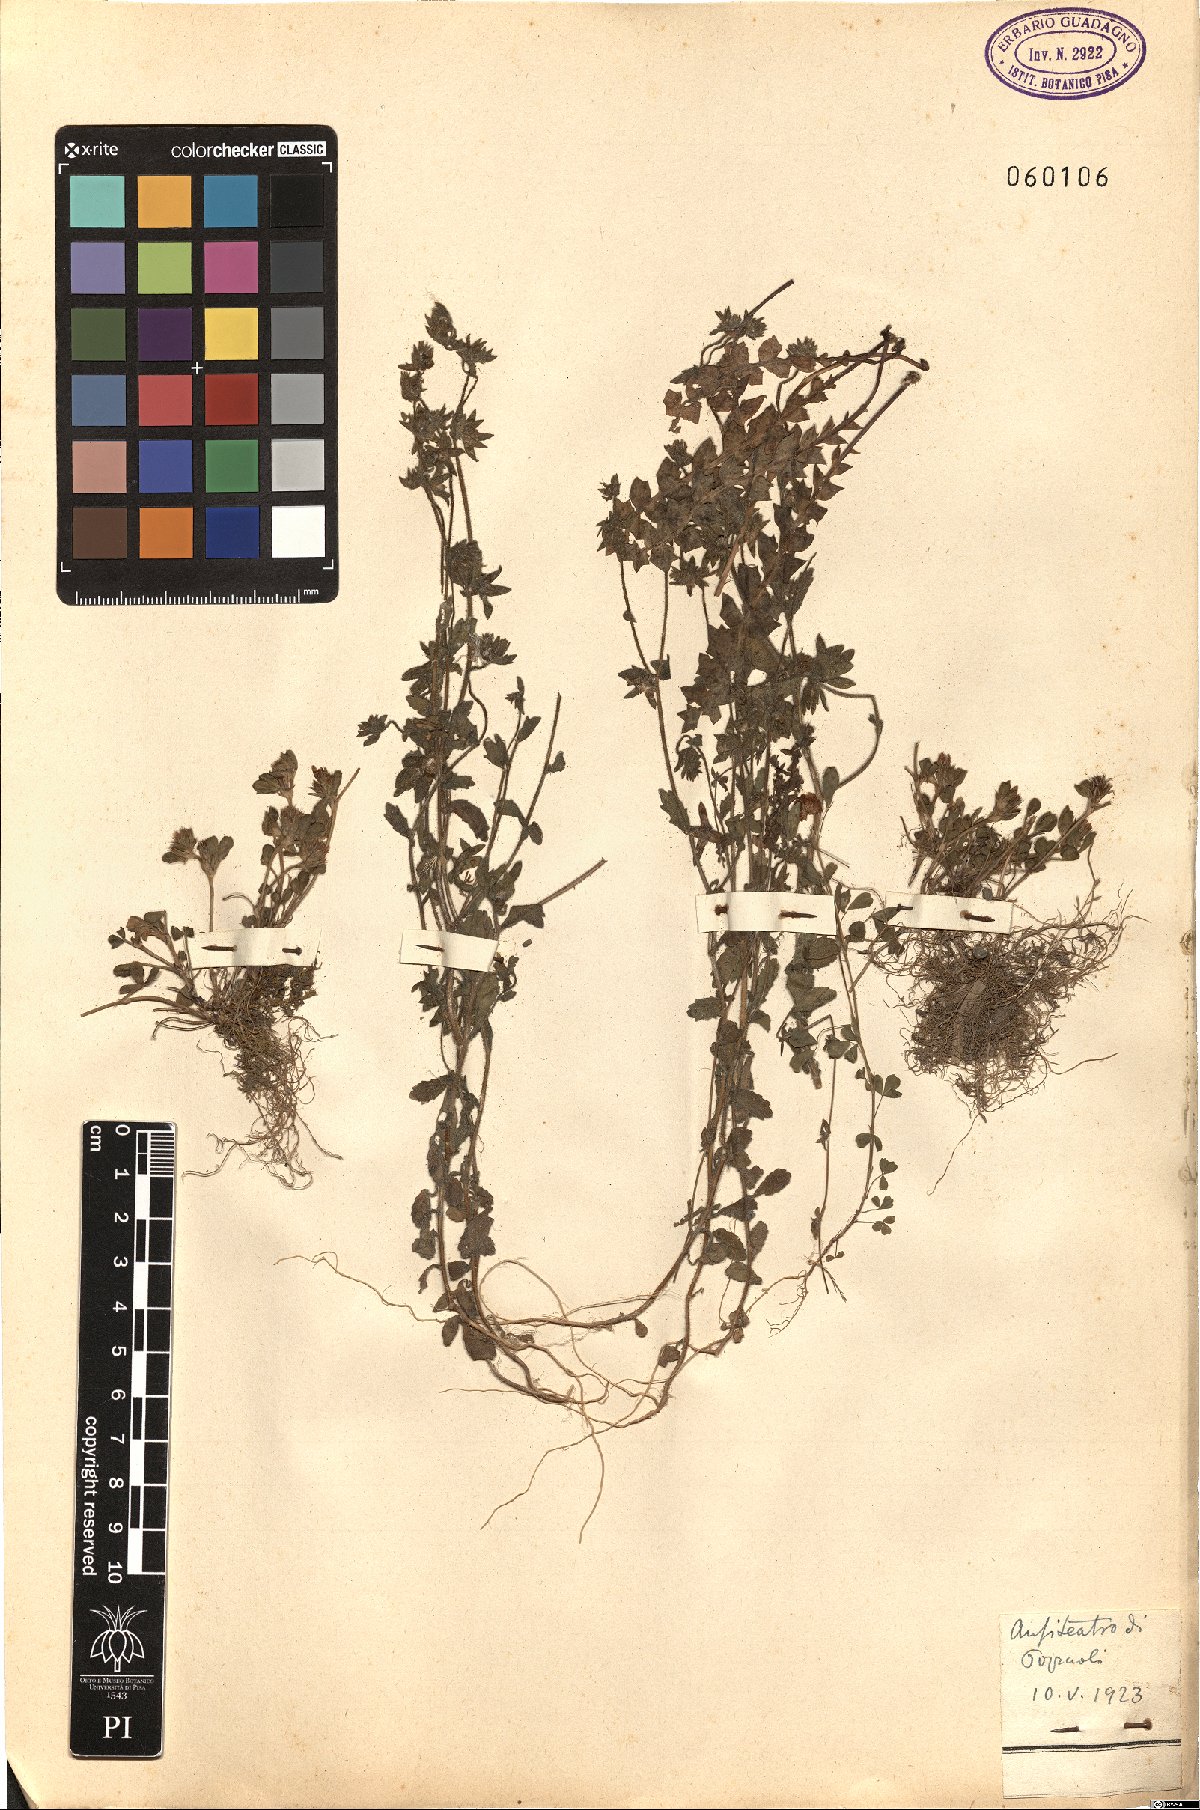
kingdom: Plantae
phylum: Tracheophyta
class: Magnoliopsida
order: Fabales
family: Fabaceae
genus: Trifolium
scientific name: Trifolium scabrum
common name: Rough clover
